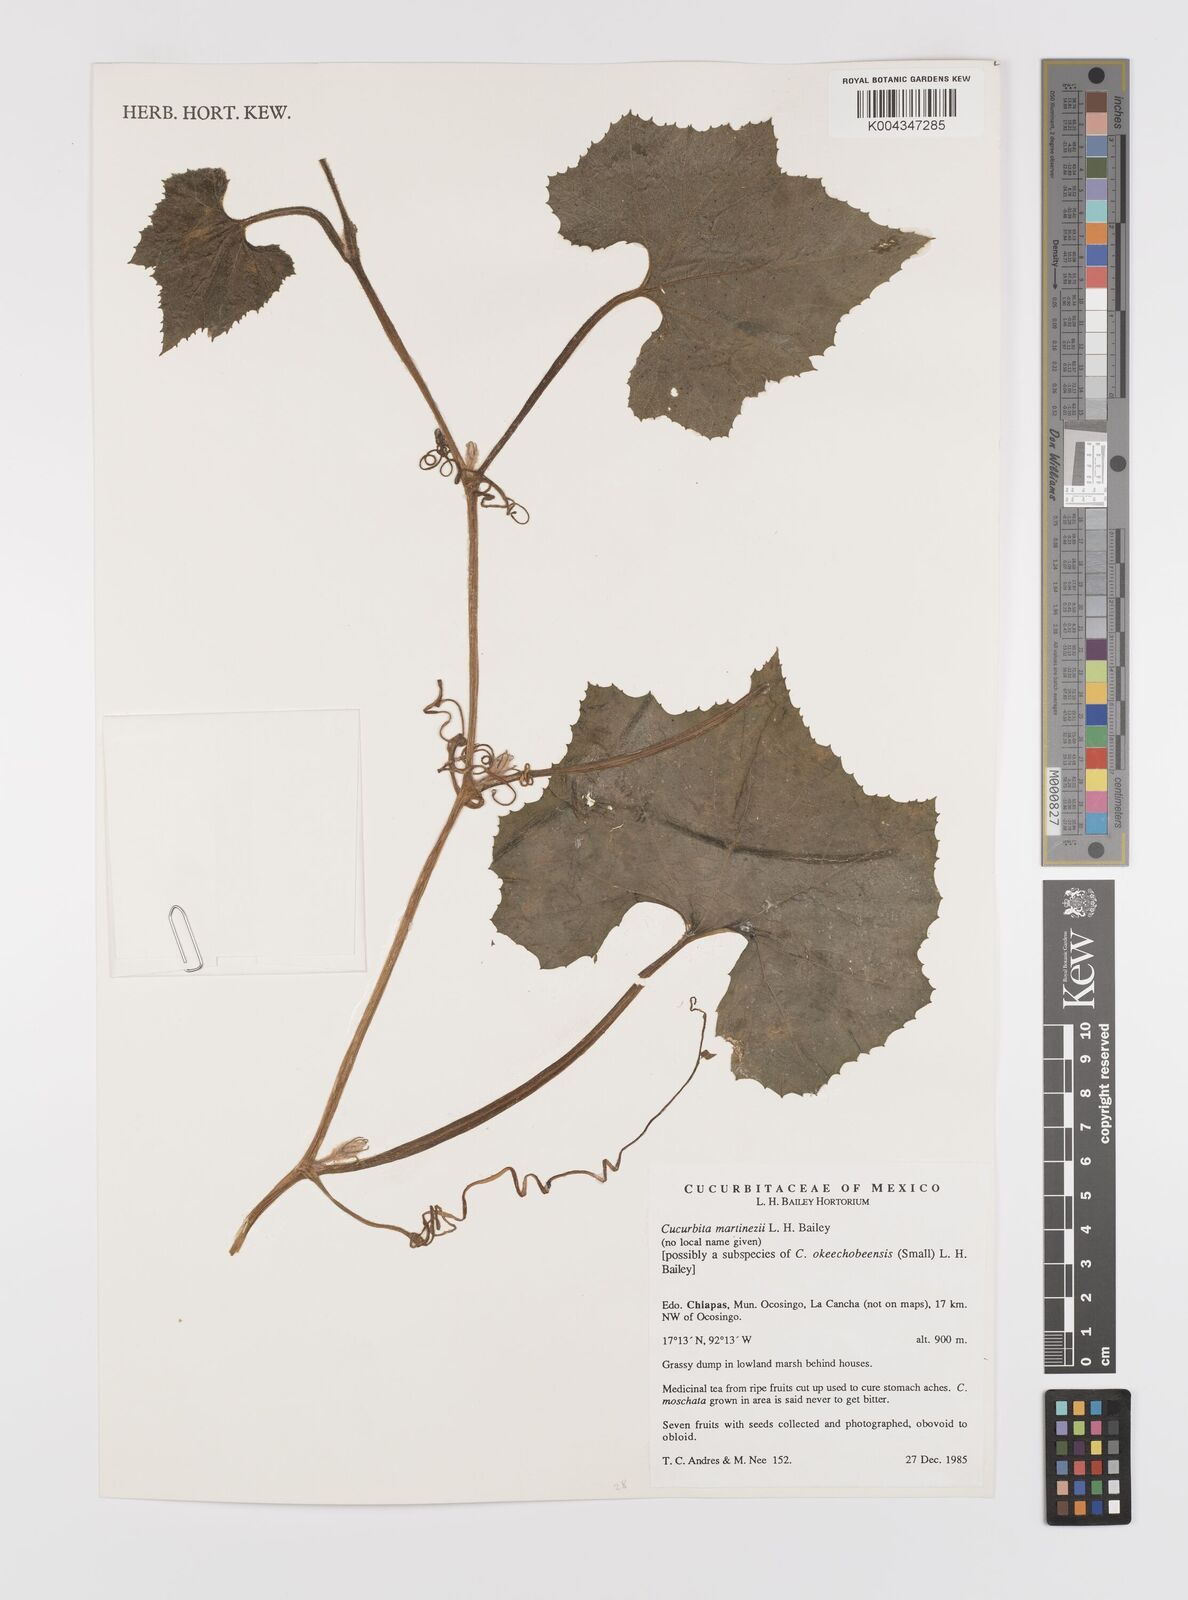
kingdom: Plantae
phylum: Tracheophyta
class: Magnoliopsida
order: Cucurbitales
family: Cucurbitaceae
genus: Cucurbita
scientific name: Cucurbita okeechobeensis
